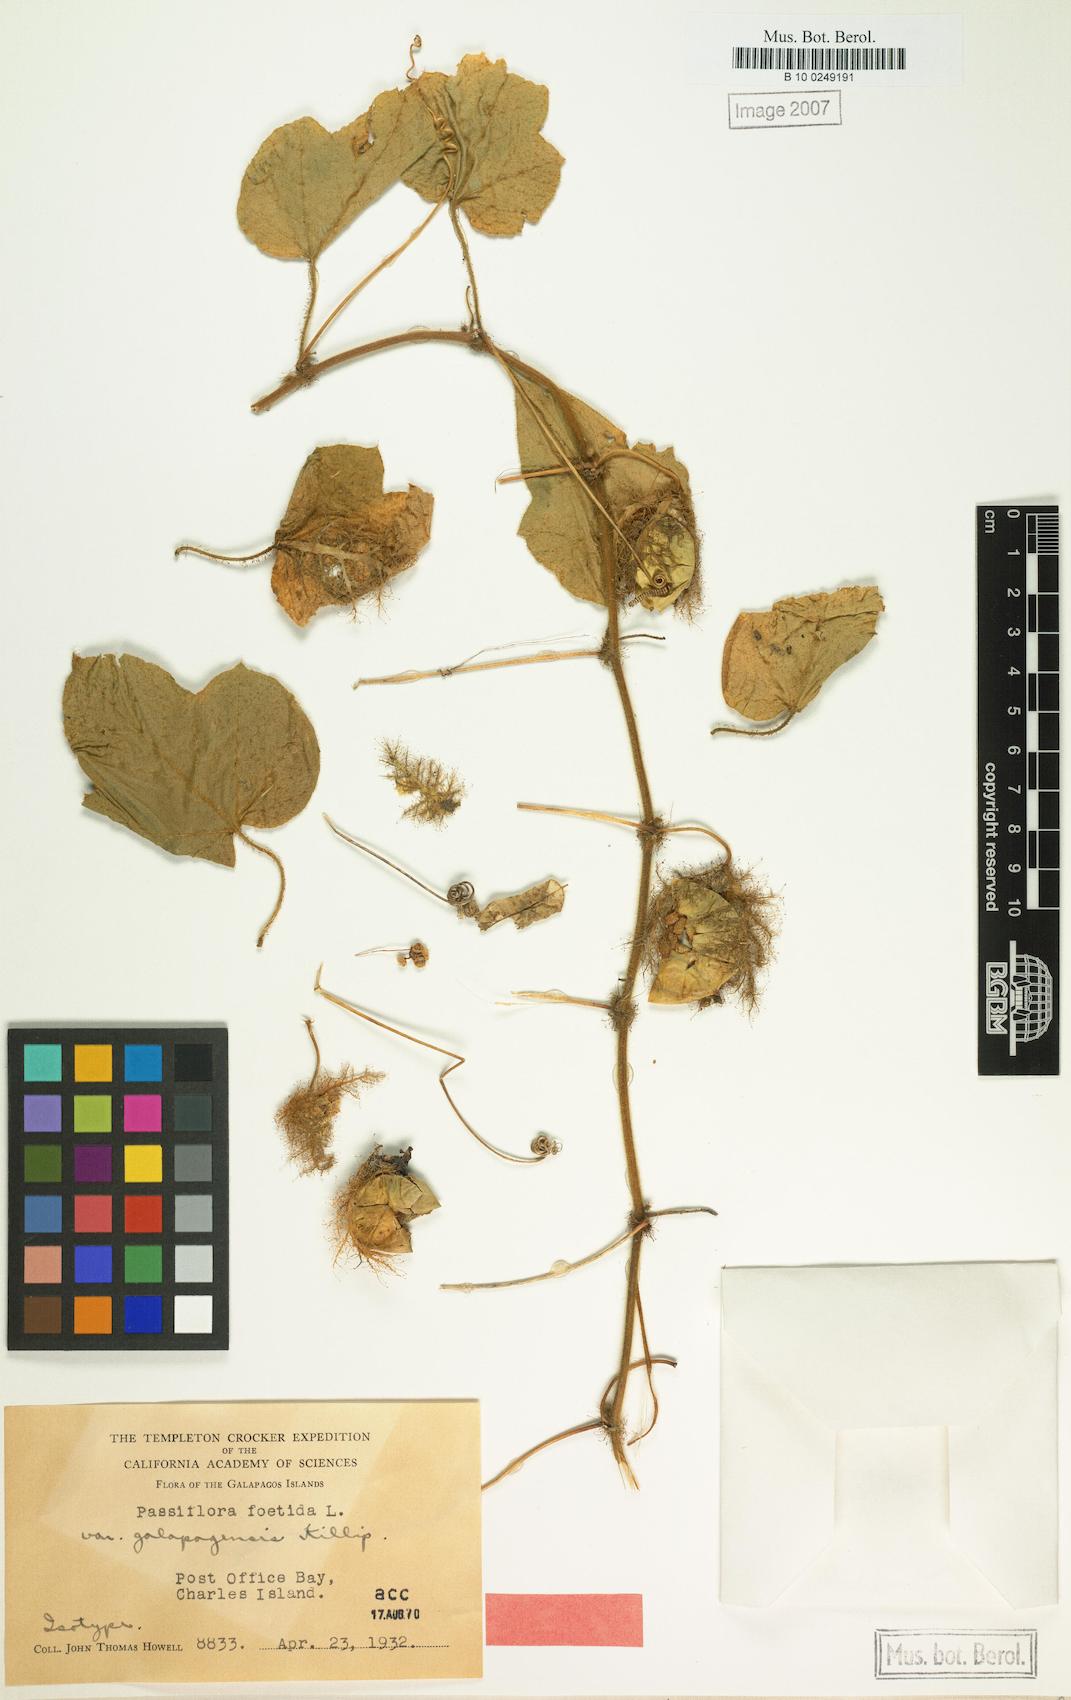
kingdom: Plantae
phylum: Tracheophyta
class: Magnoliopsida
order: Malpighiales
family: Passifloraceae
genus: Passiflora
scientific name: Passiflora vesicaria
